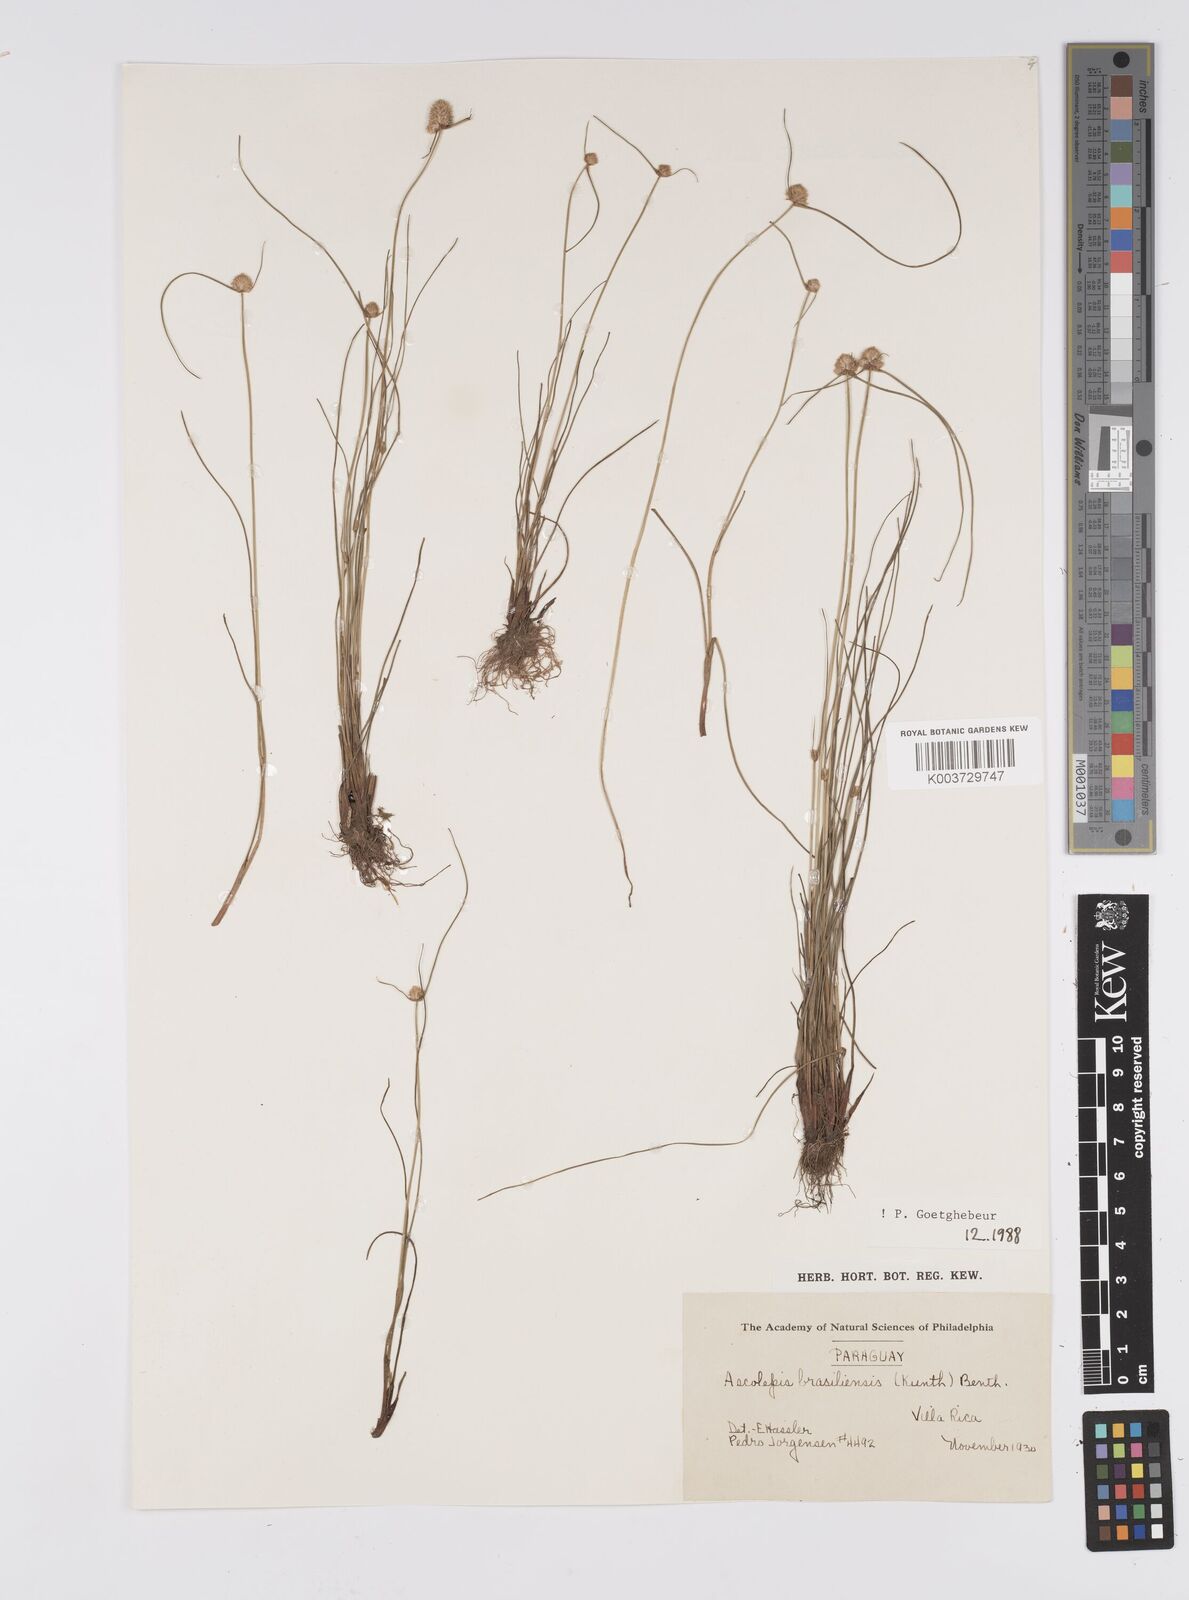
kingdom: Plantae
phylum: Tracheophyta
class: Liliopsida
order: Poales
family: Cyperaceae
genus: Cyperus
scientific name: Cyperus brasiliensis
